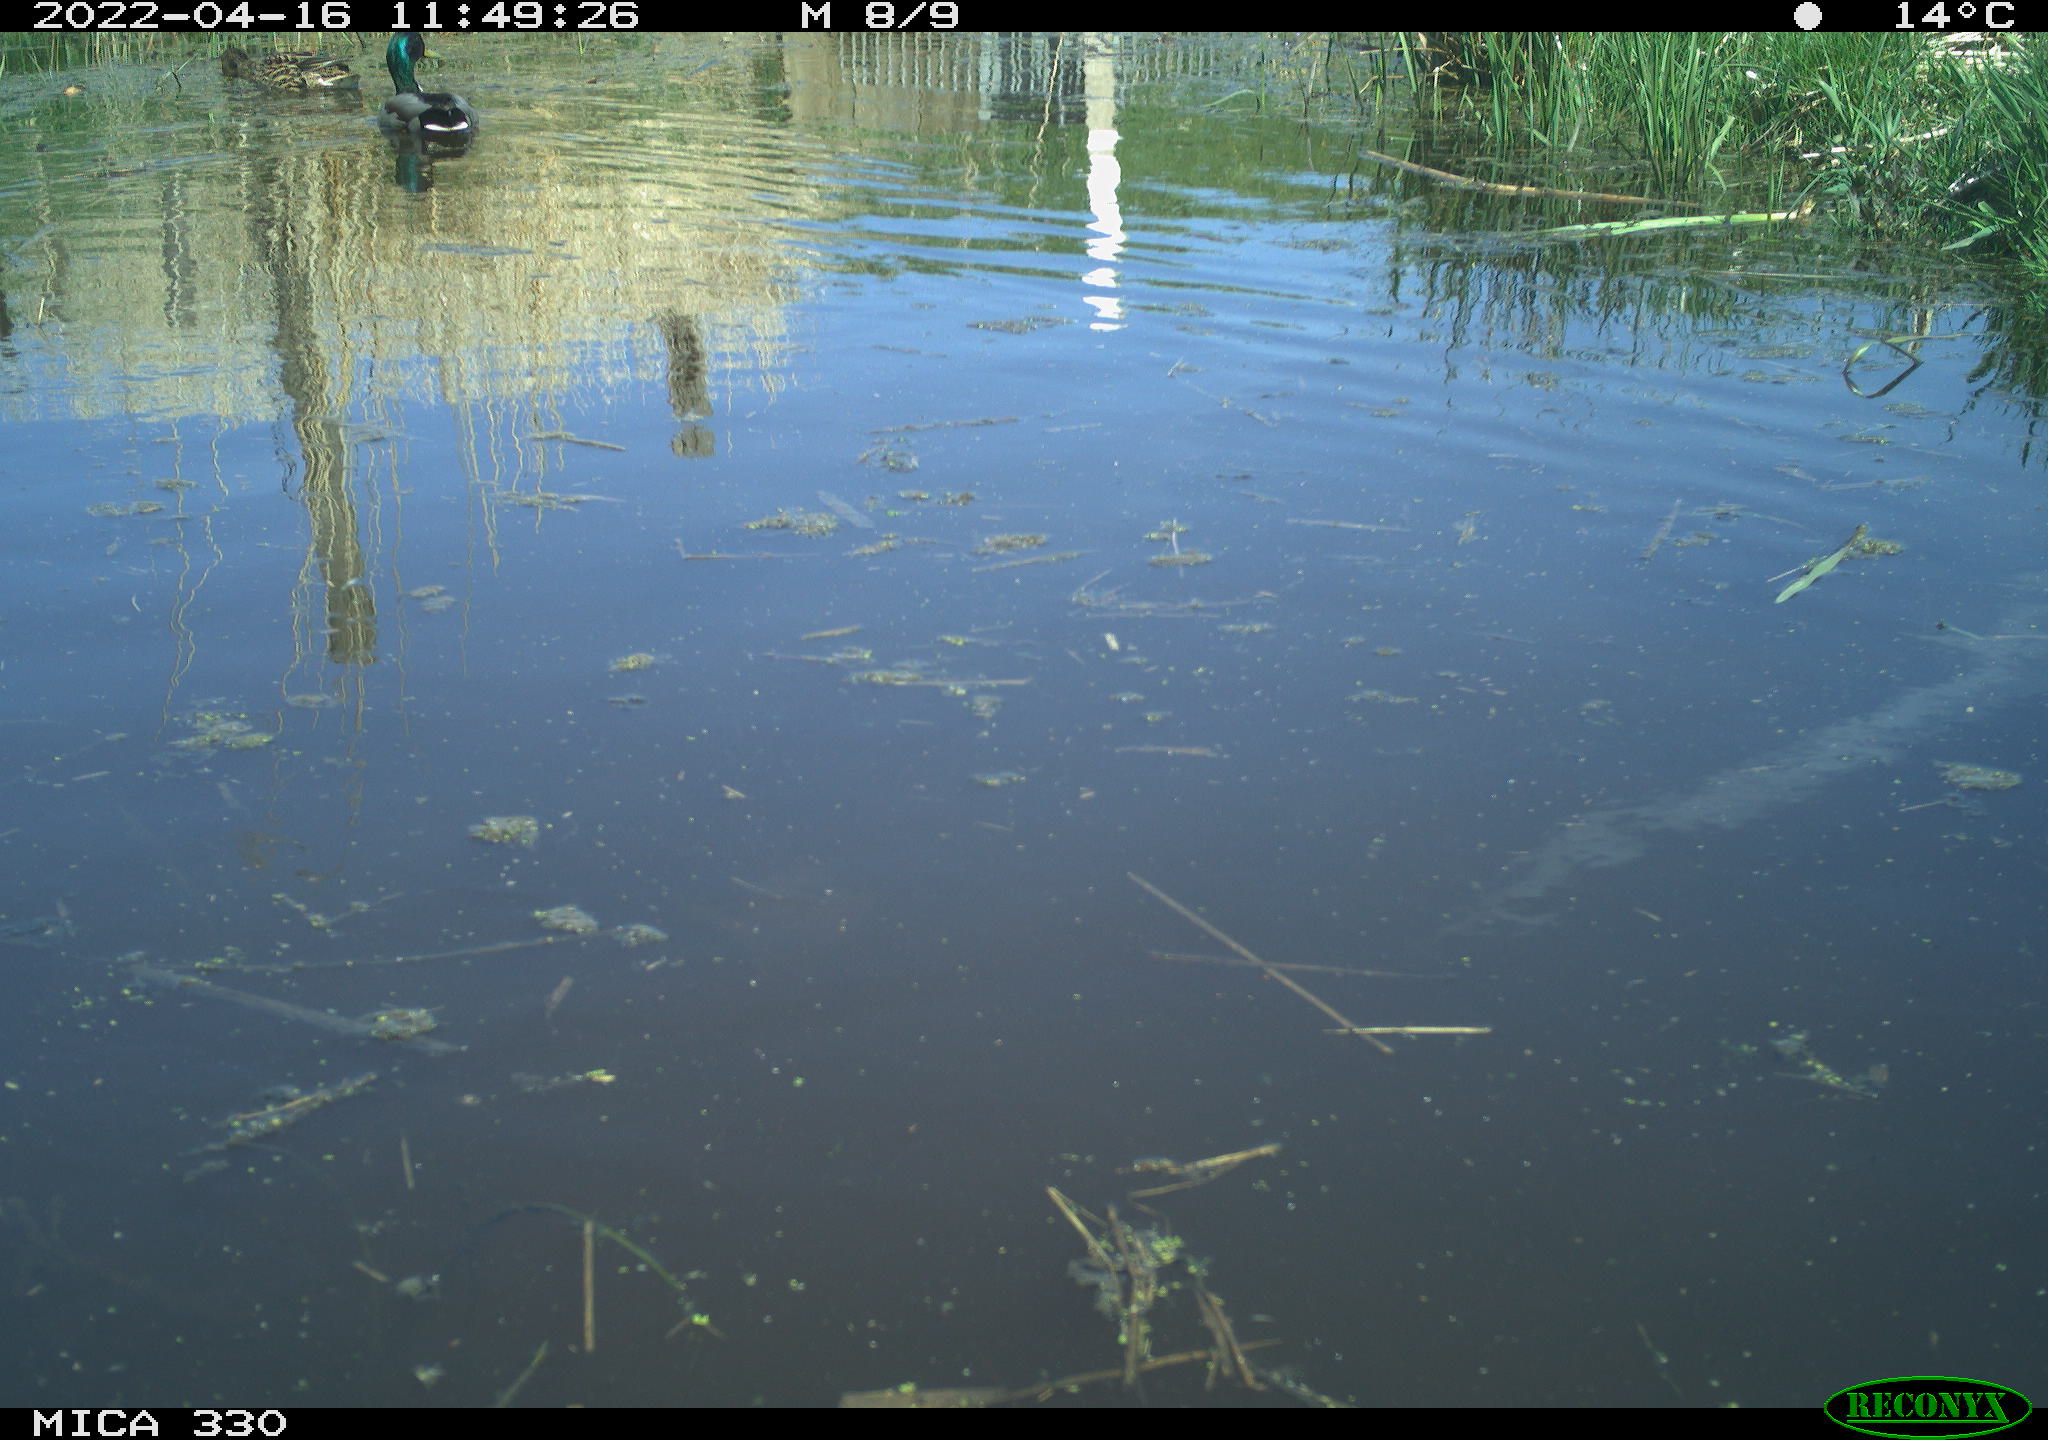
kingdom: Animalia
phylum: Chordata
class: Aves
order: Anseriformes
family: Anatidae
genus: Anas
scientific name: Anas platyrhynchos
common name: Mallard
